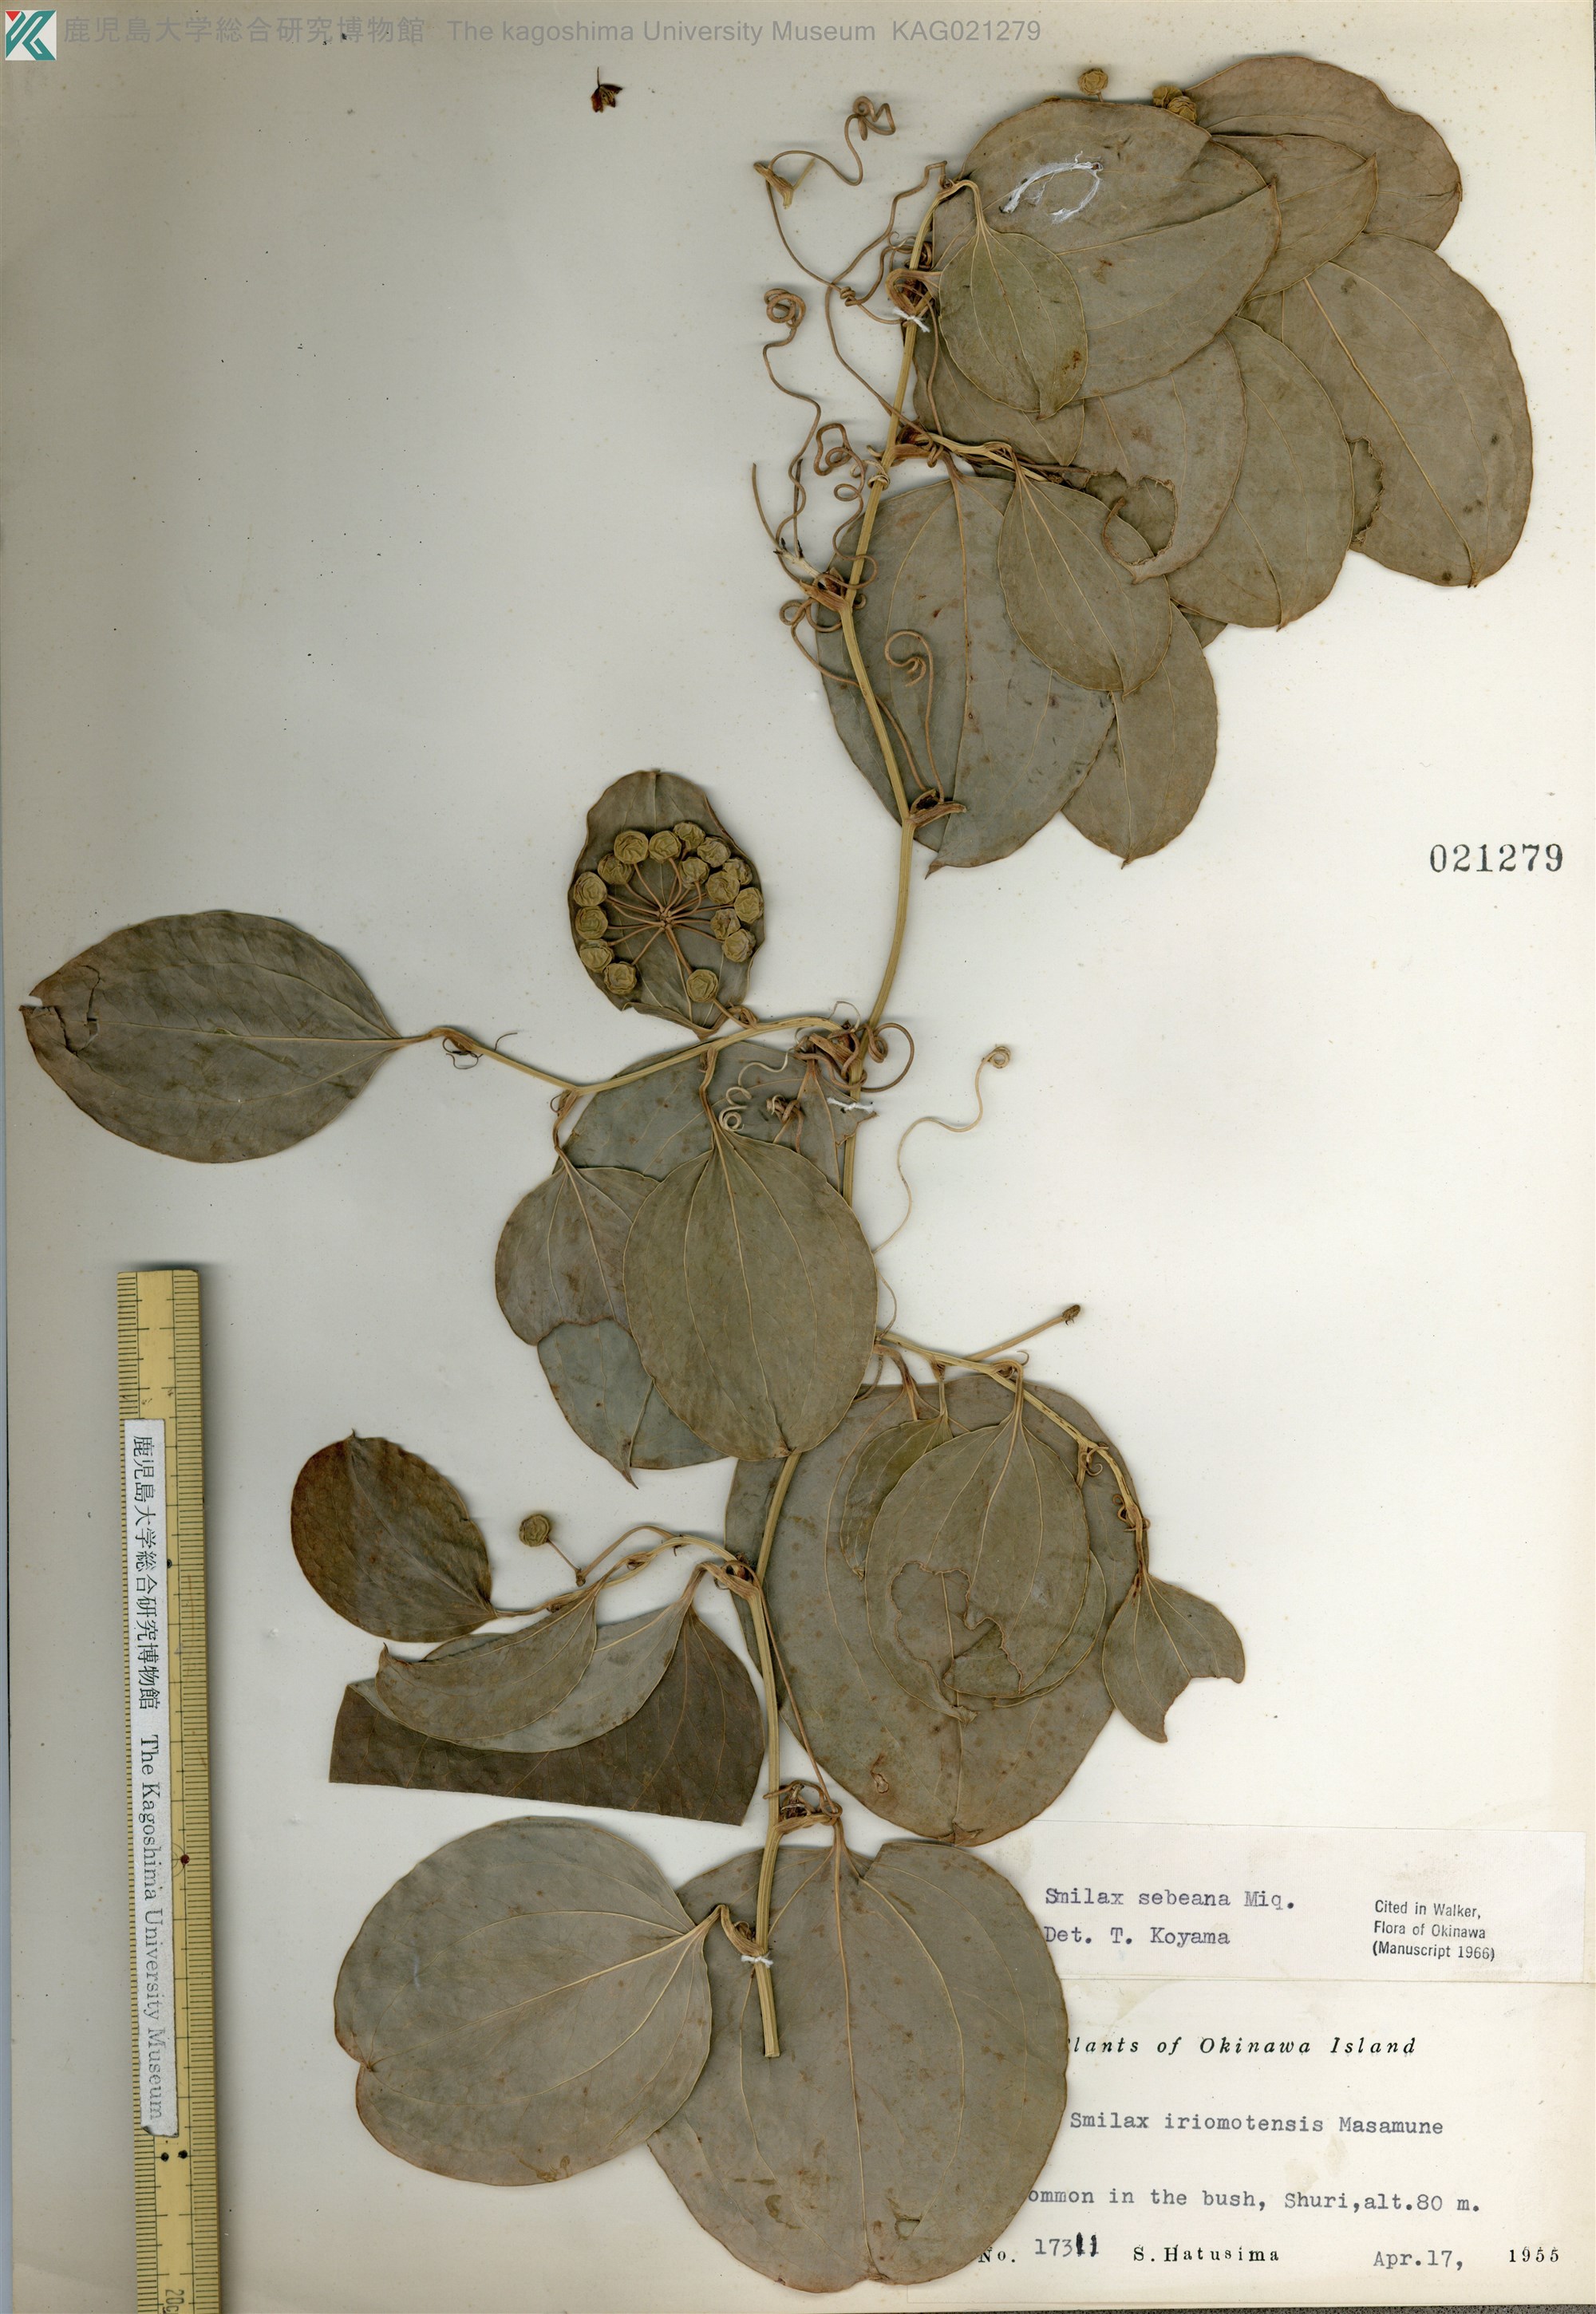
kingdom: Plantae
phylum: Tracheophyta
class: Liliopsida
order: Liliales
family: Smilacaceae
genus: Smilax
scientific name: Smilax sebeana
